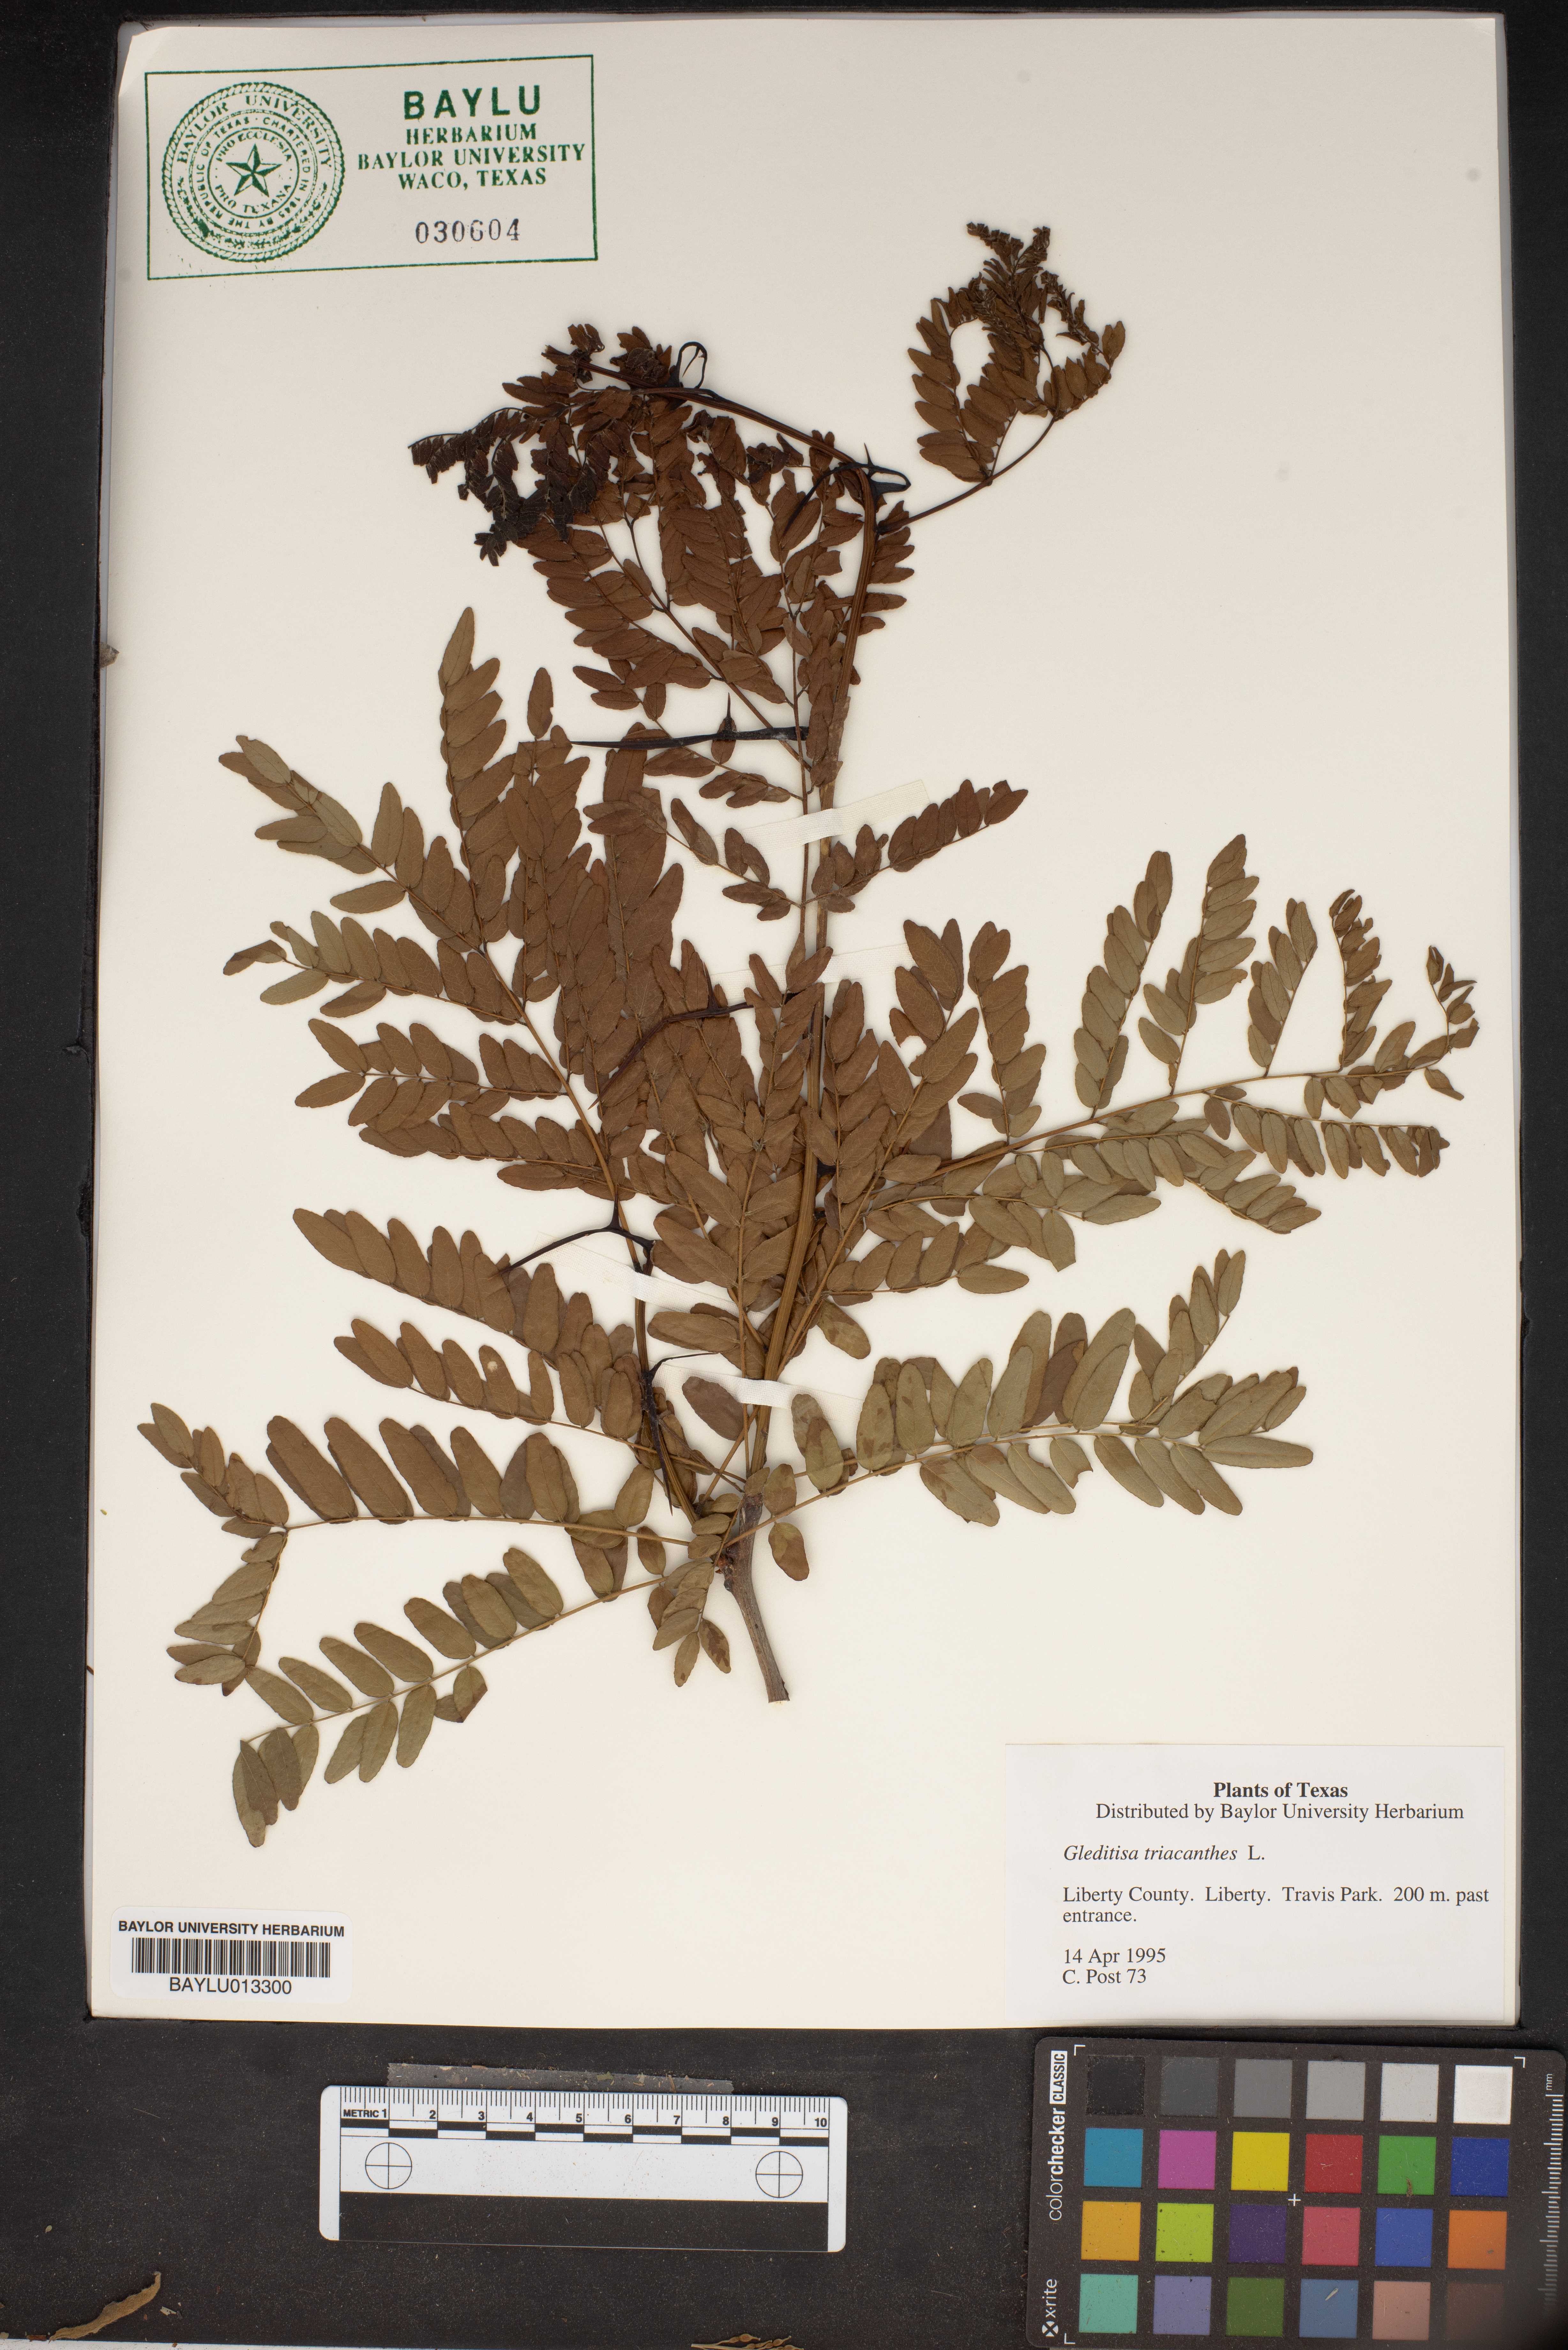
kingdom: Plantae
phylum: Tracheophyta
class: Magnoliopsida
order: Fabales
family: Fabaceae
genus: Gleditsia
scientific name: Gleditsia triacanthos
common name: Common honeylocust
